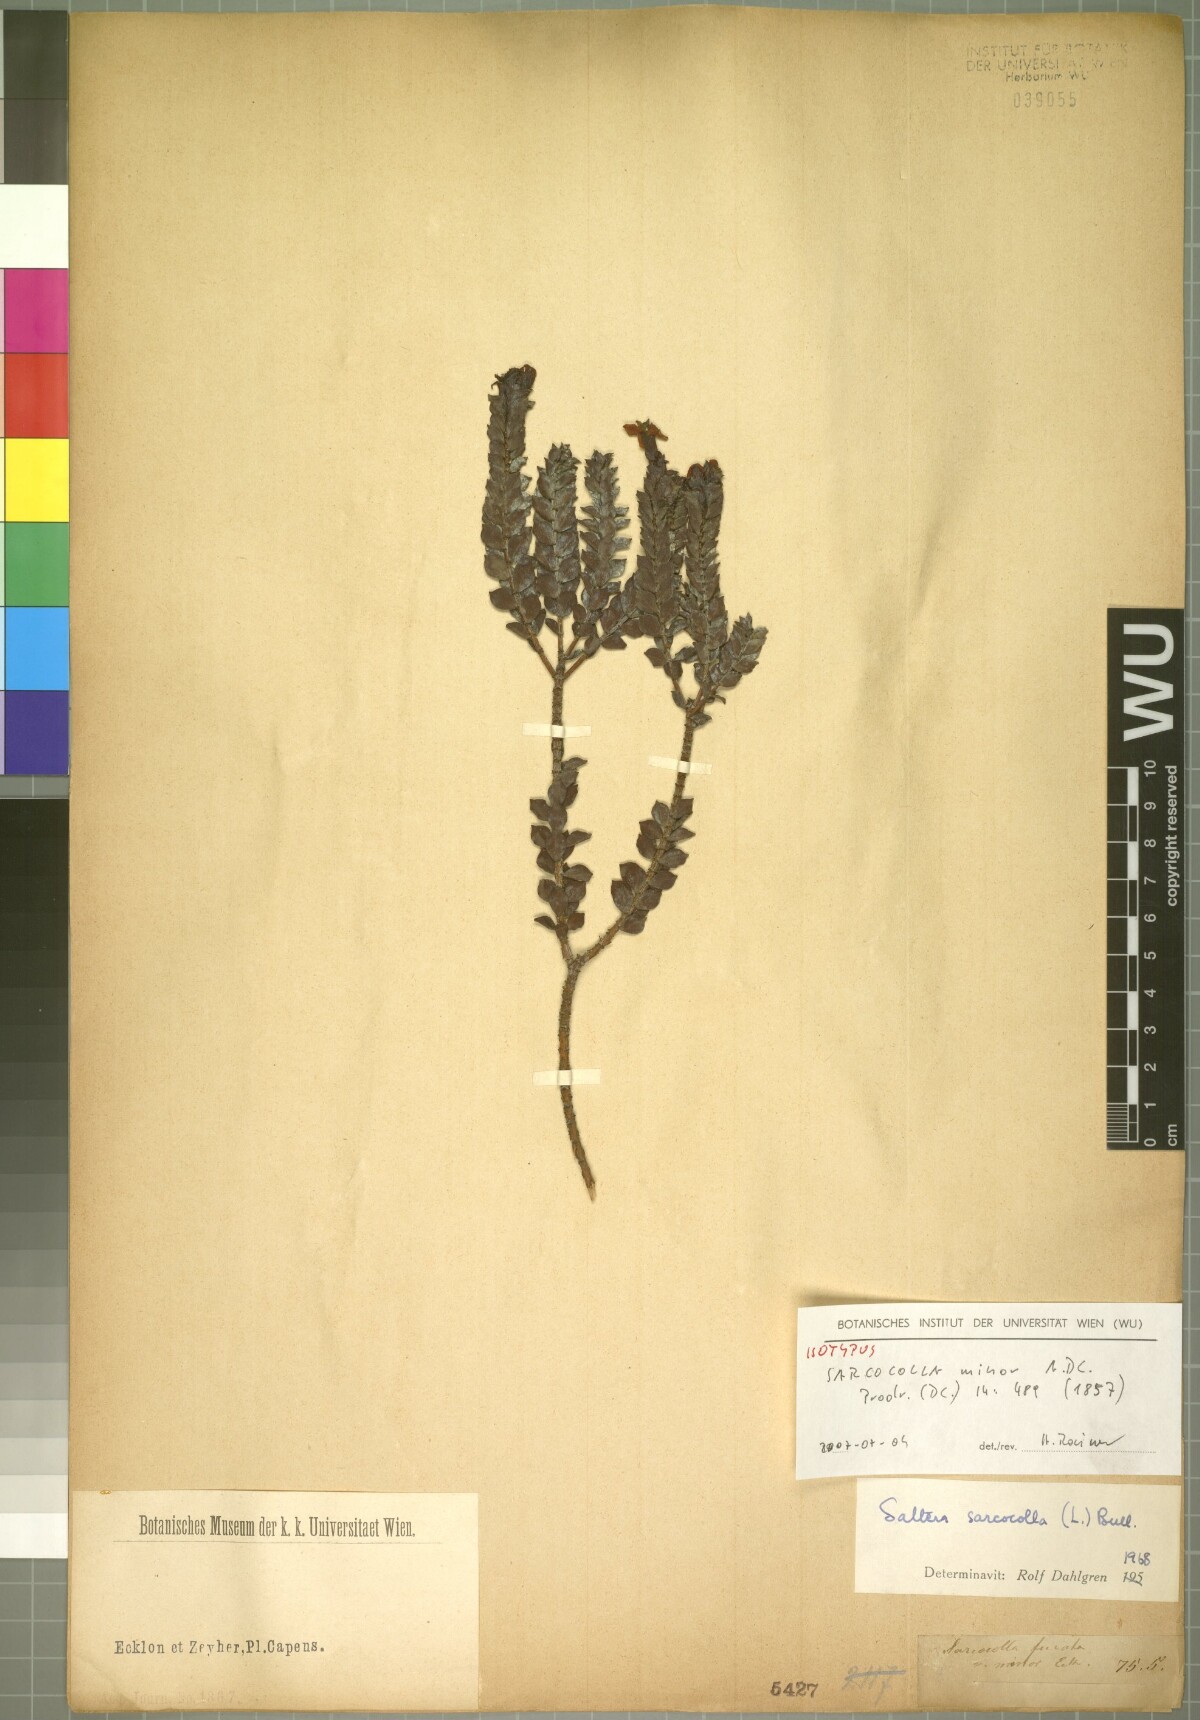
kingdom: Plantae
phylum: Tracheophyta
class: Magnoliopsida
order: Myrtales
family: Penaeaceae
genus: Saltera
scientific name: Saltera sarcocolla
